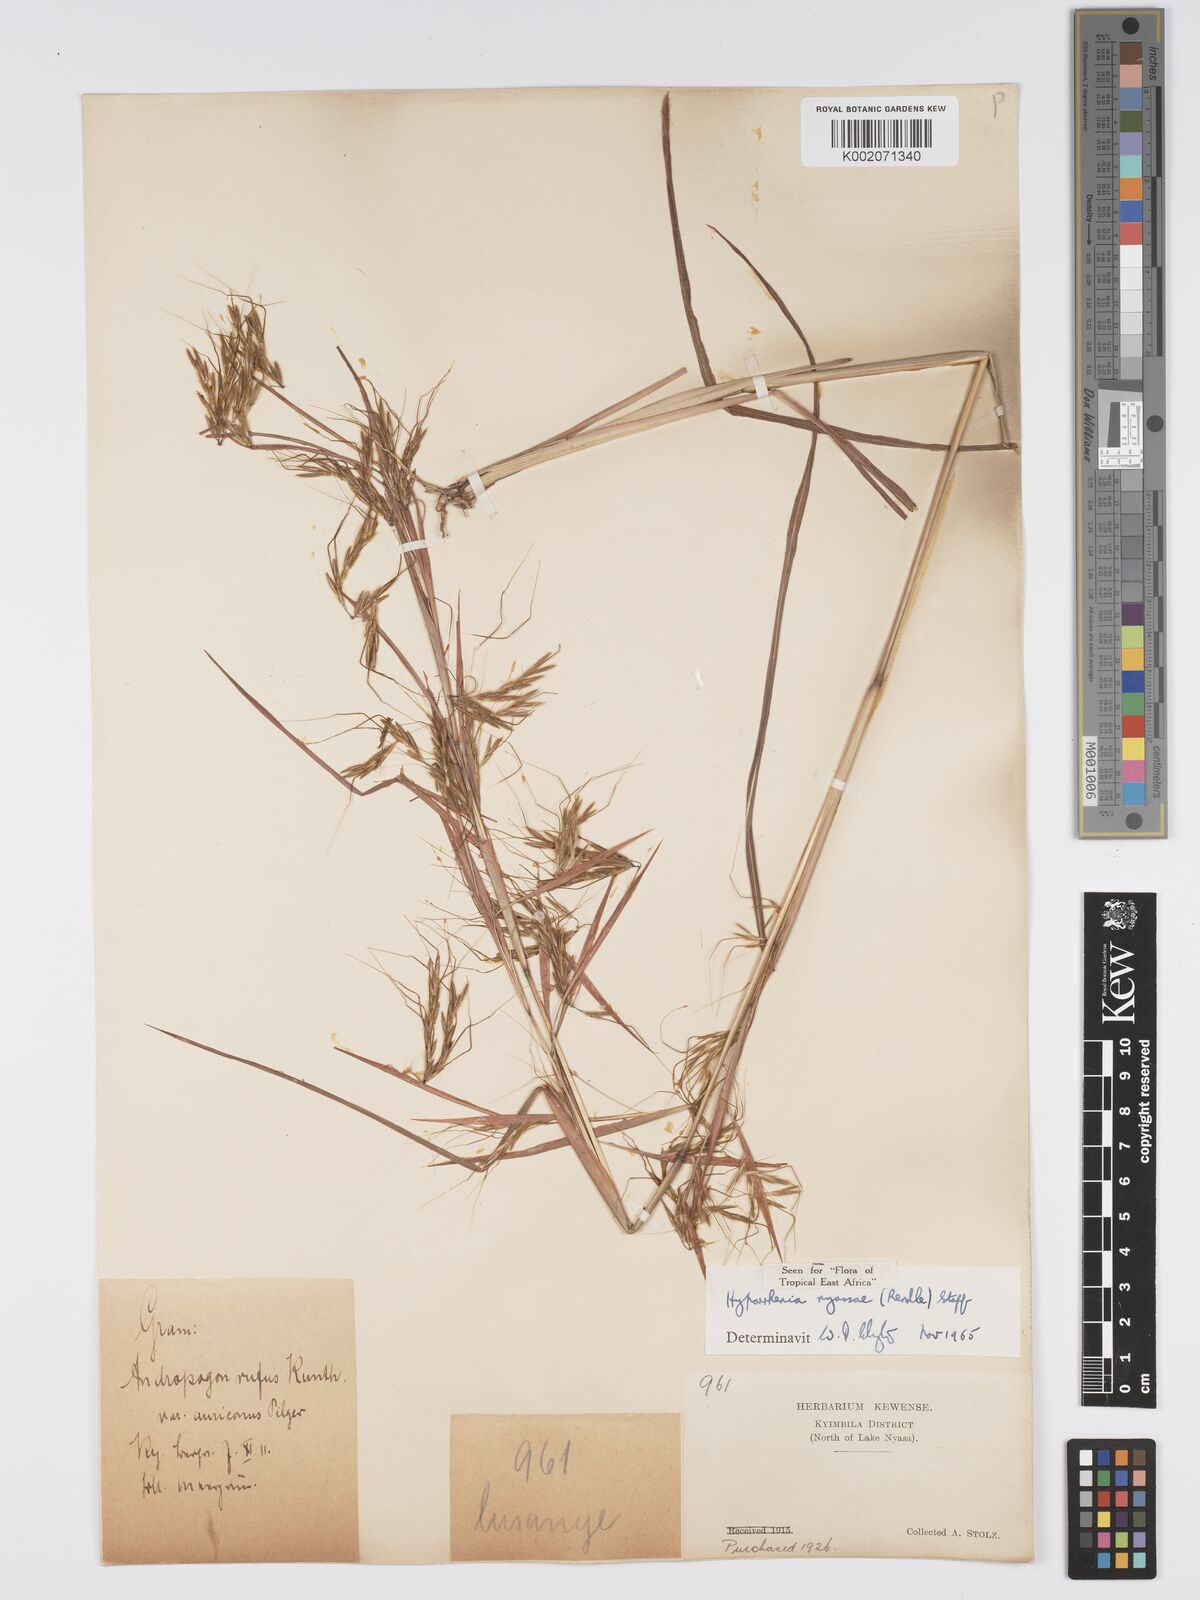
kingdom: Plantae
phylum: Tracheophyta
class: Liliopsida
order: Poales
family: Poaceae
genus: Hyparrhenia
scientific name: Hyparrhenia nyassae
